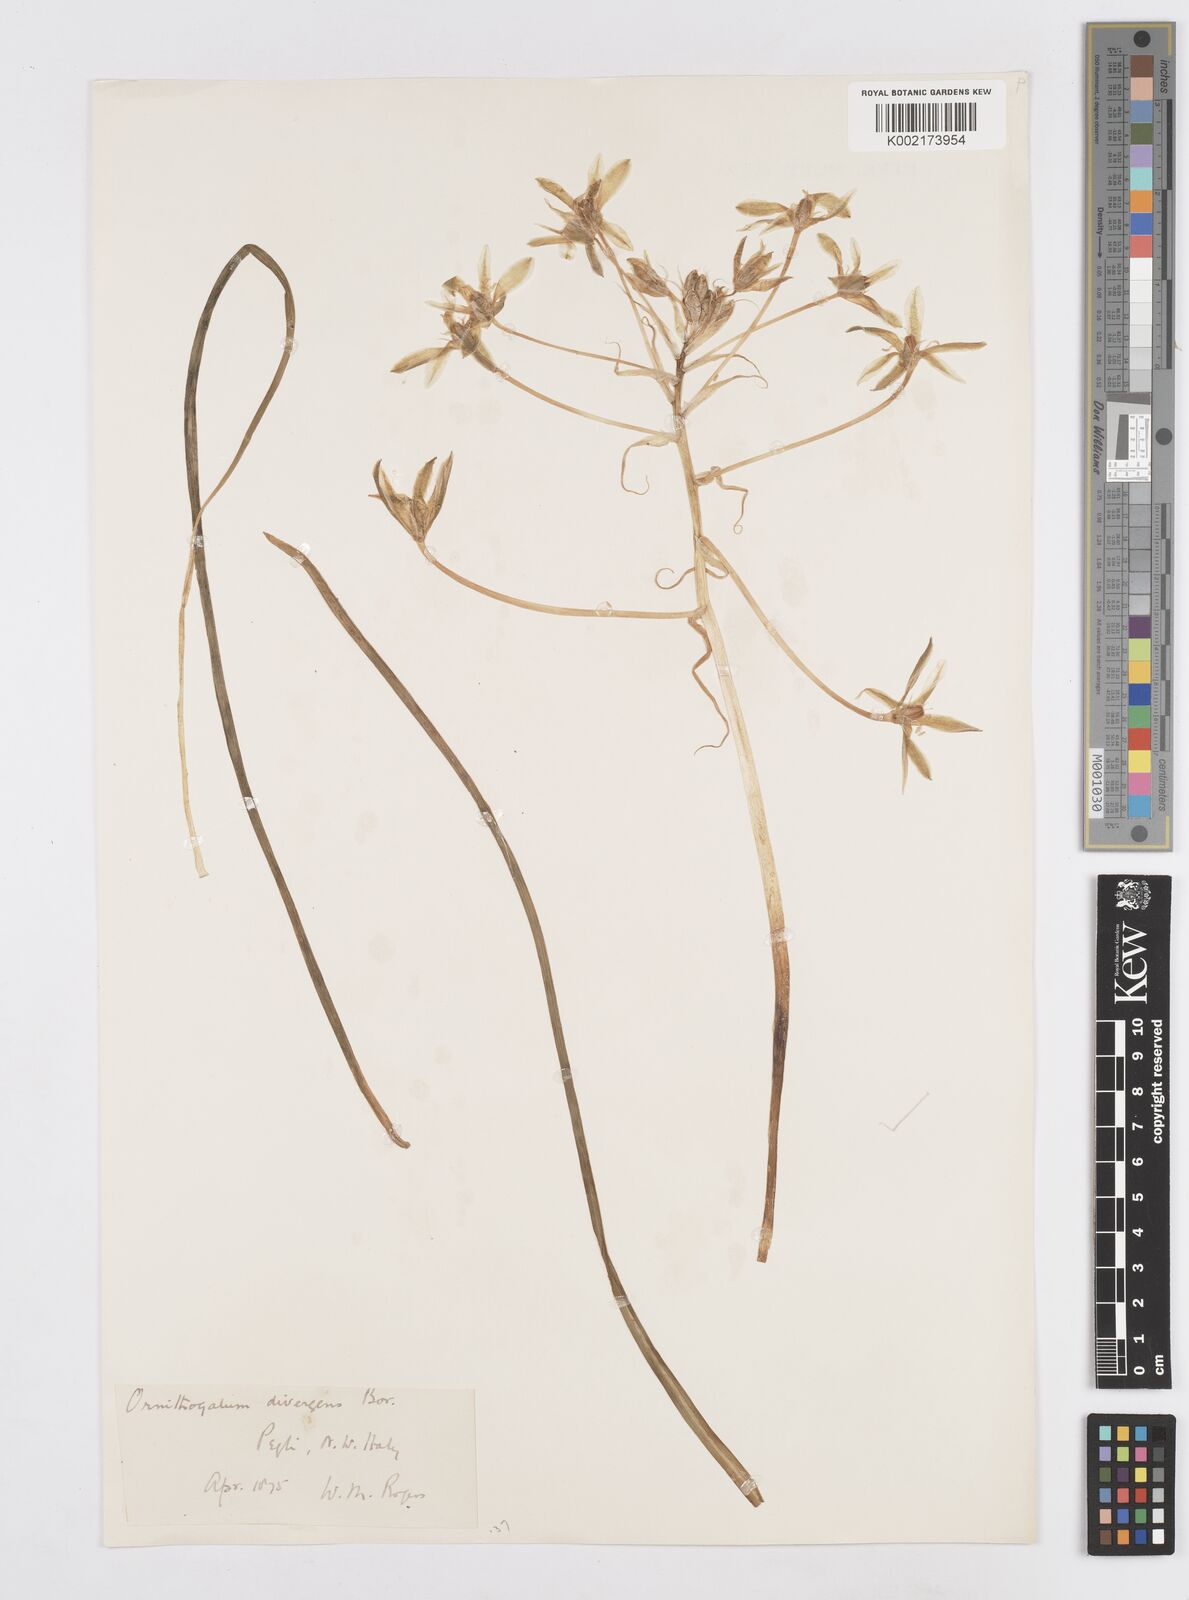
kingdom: Plantae
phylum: Tracheophyta
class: Liliopsida
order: Asparagales
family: Asparagaceae
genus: Ornithogalum
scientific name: Ornithogalum divergens
